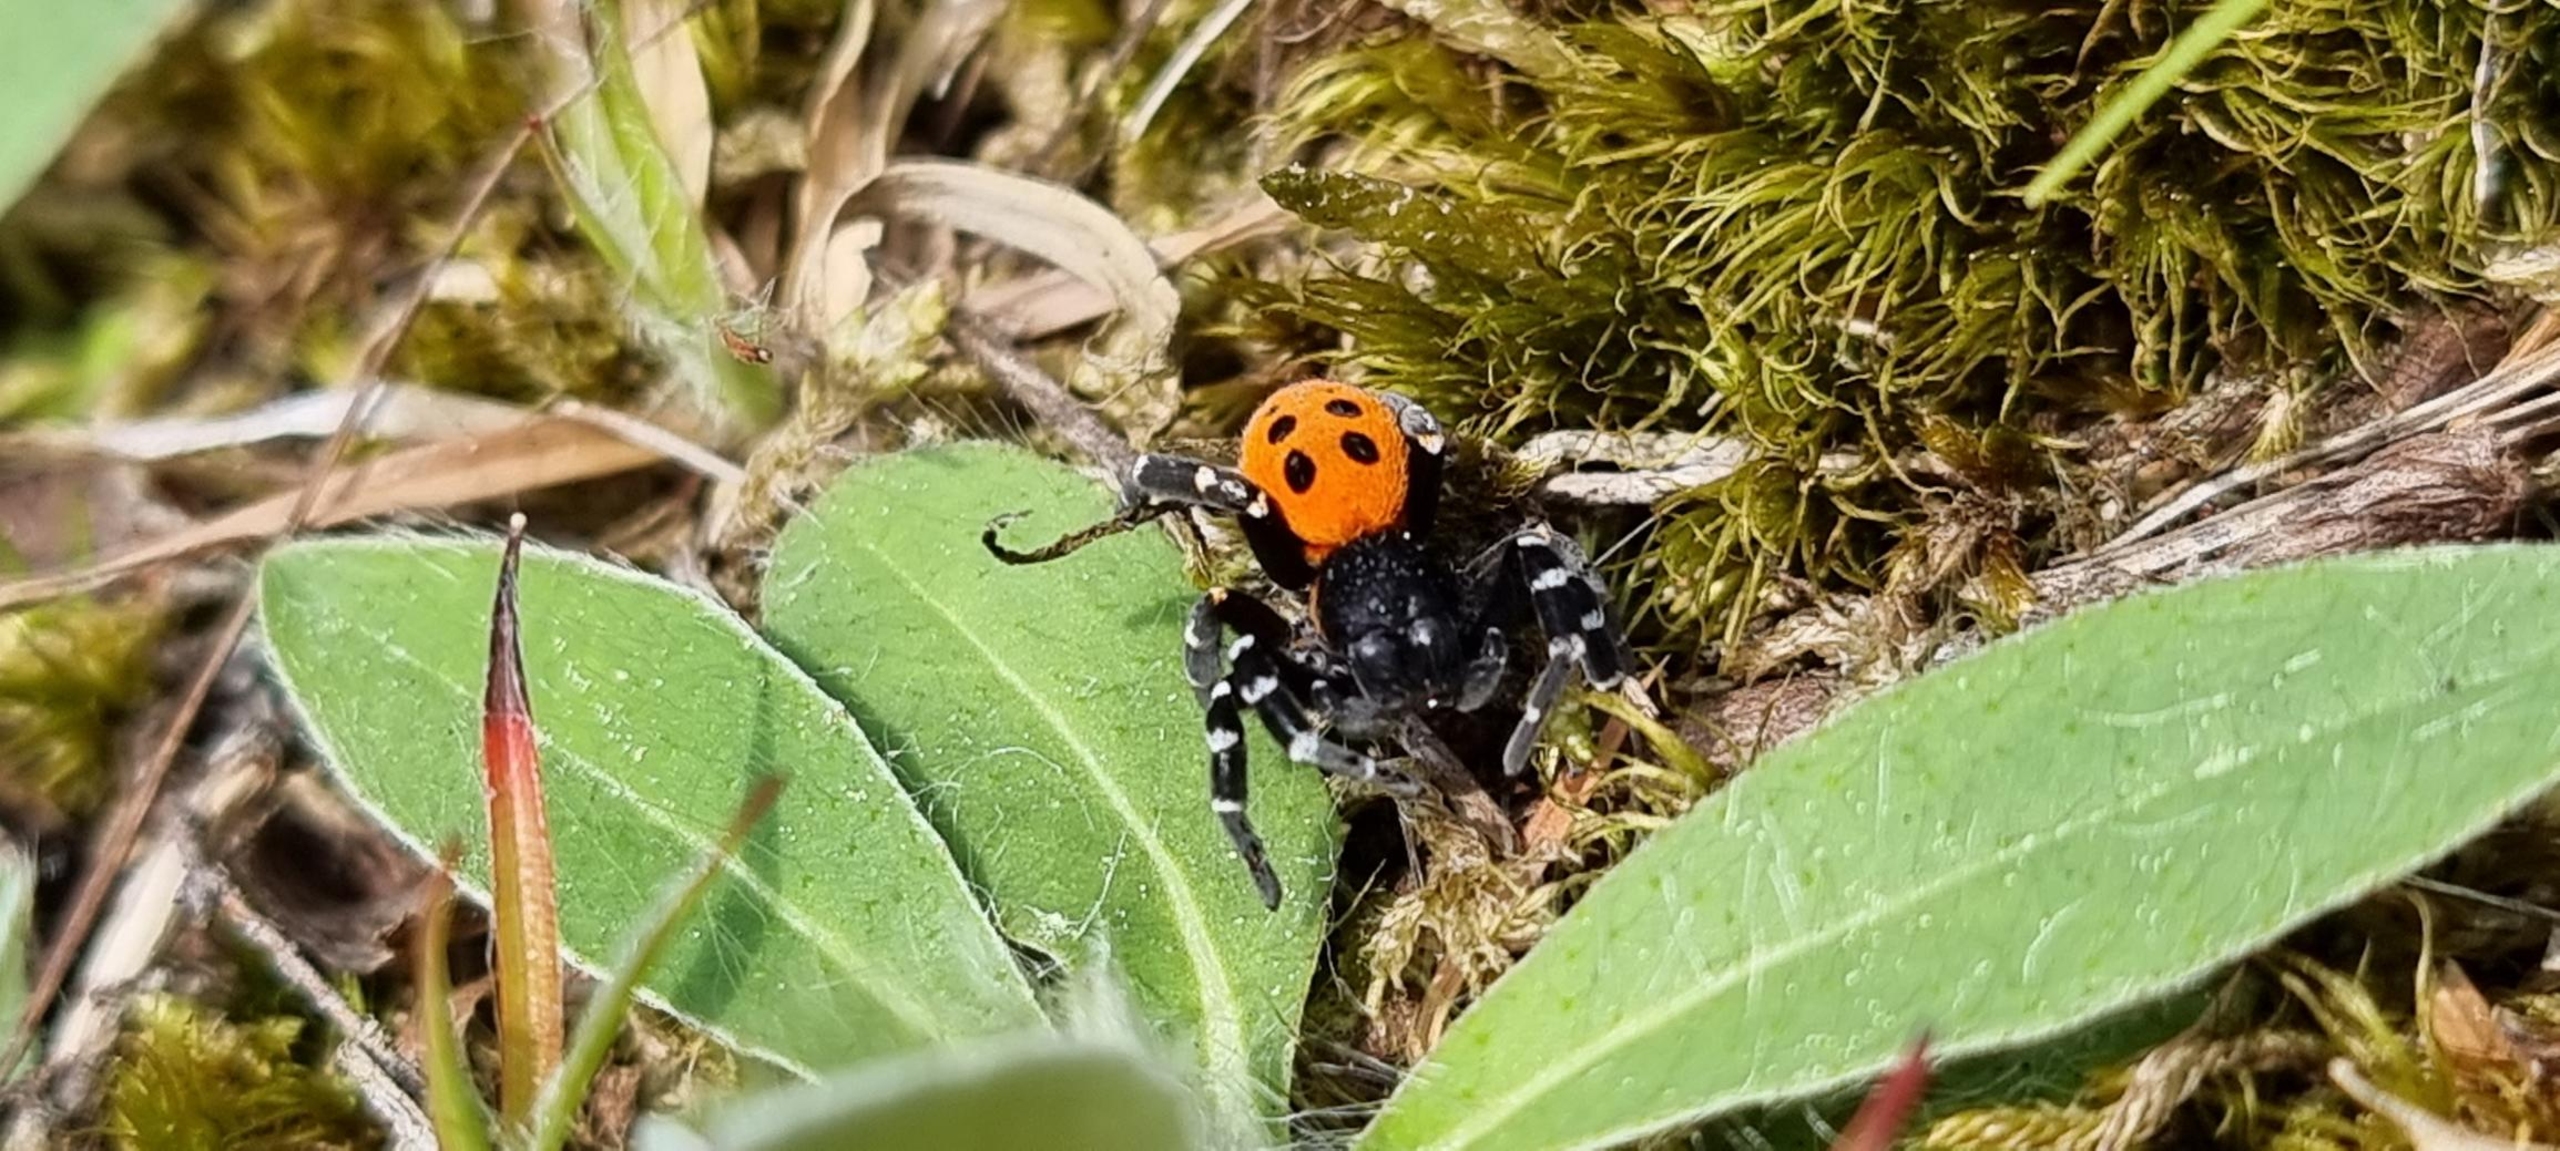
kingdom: Animalia
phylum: Arthropoda
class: Arachnida
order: Araneae
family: Eresidae
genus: Eresus
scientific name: Eresus sandaliatus
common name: Mariehøneedderkop
